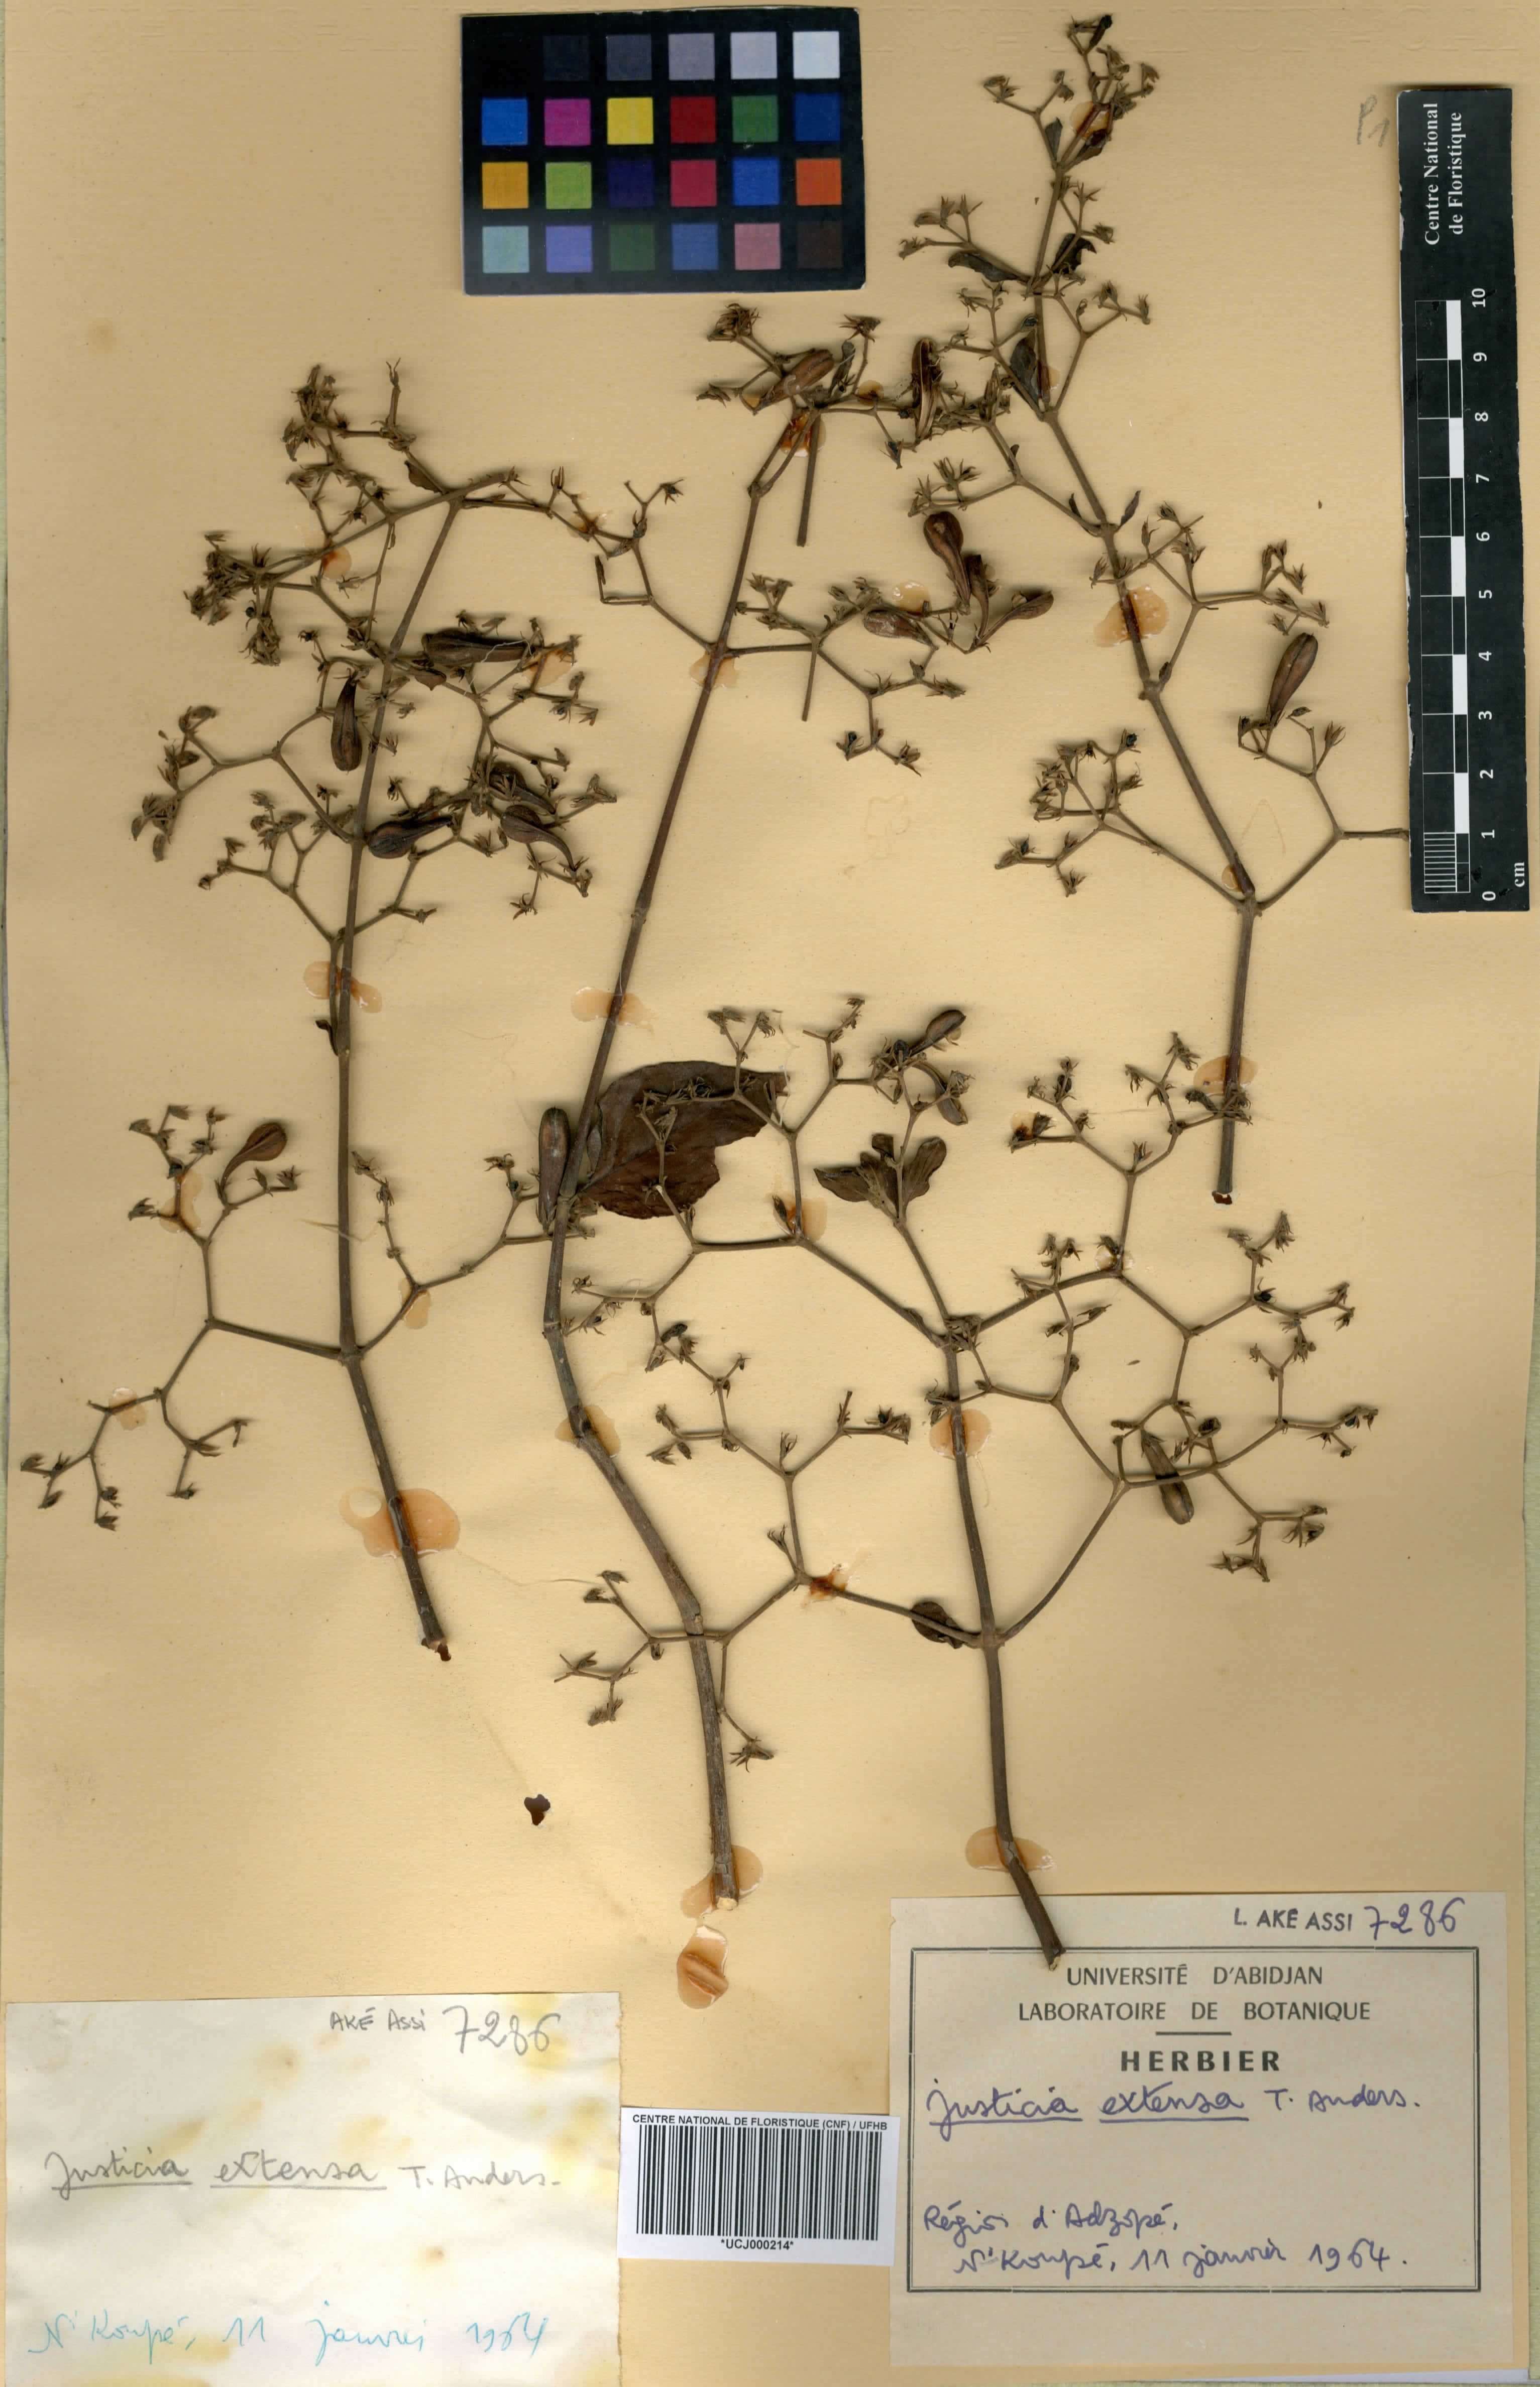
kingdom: Plantae
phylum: Tracheophyta
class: Magnoliopsida
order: Lamiales
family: Acanthaceae
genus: Justicia
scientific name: Justicia extensa
